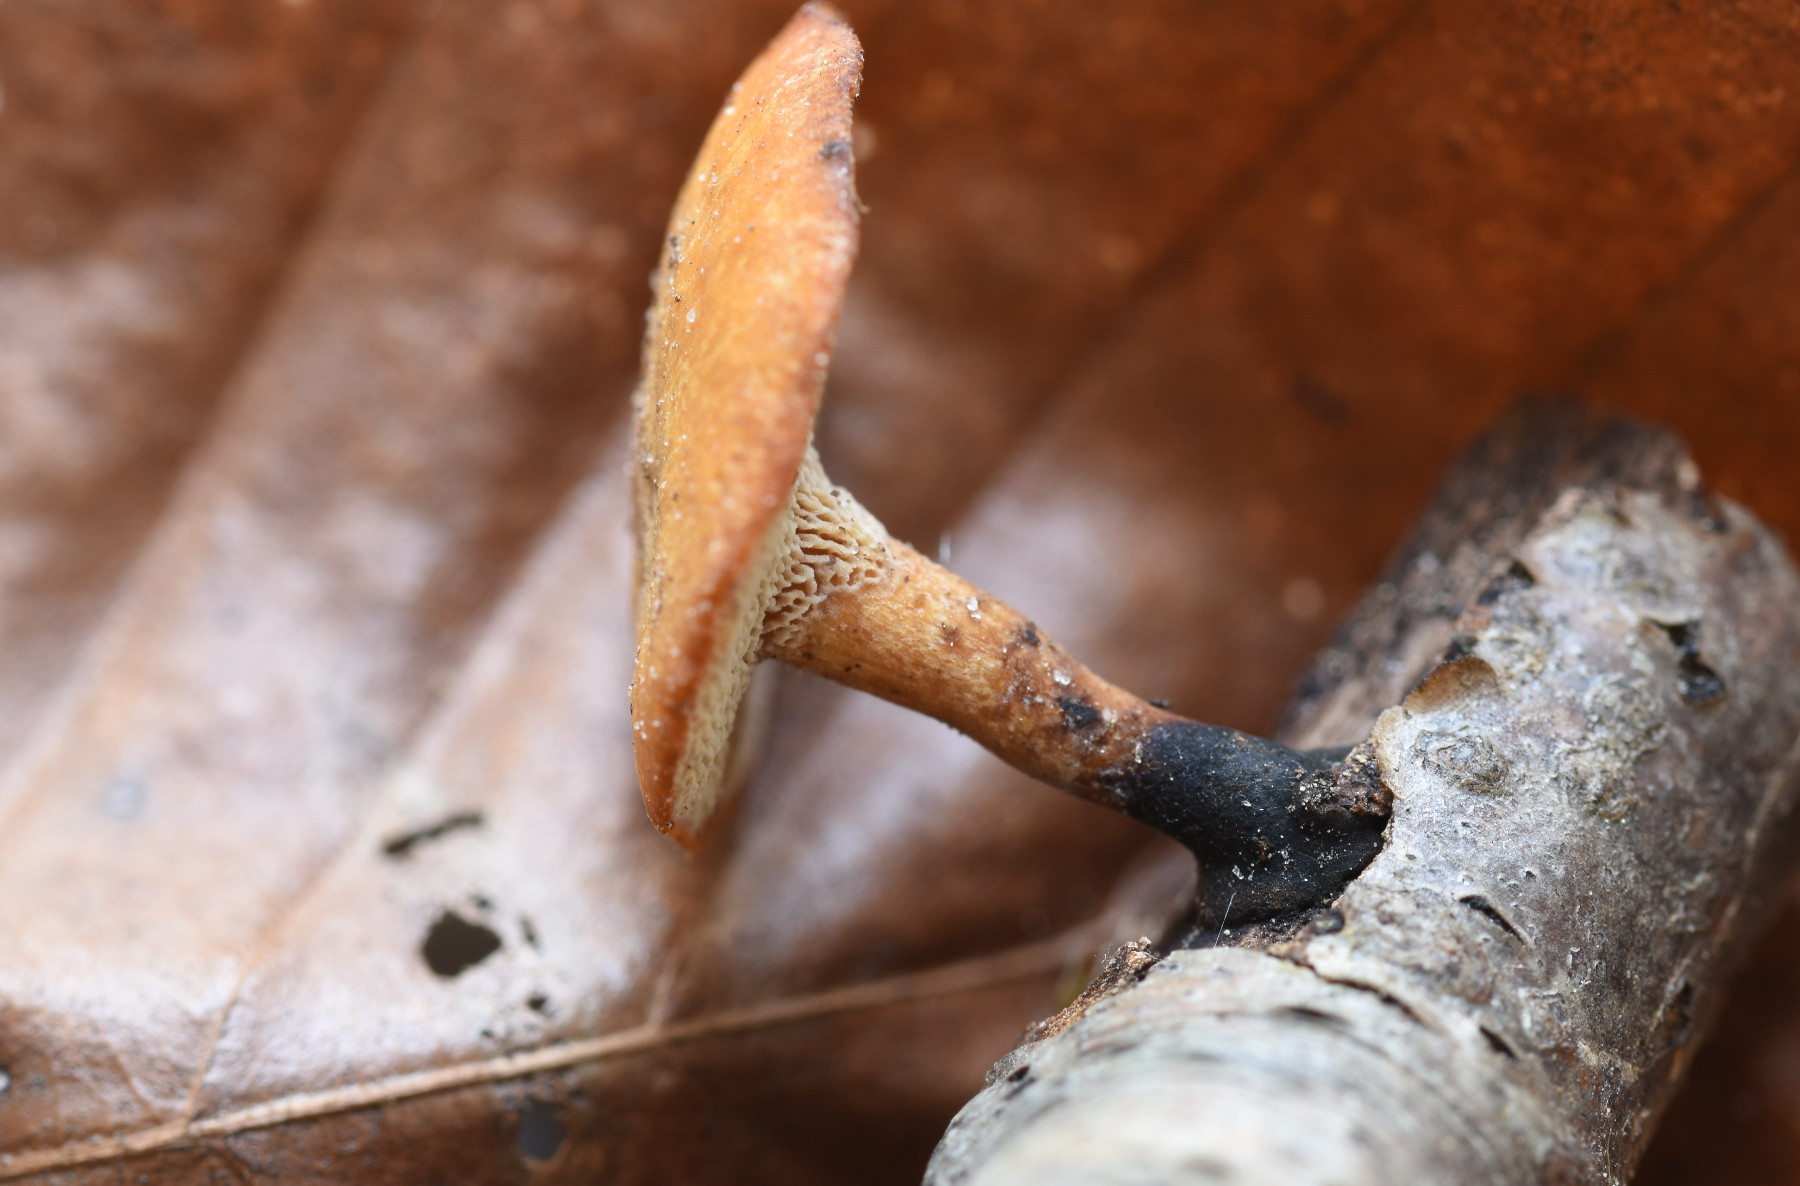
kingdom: Fungi
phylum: Basidiomycota
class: Agaricomycetes
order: Polyporales
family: Polyporaceae
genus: Cerioporus
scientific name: Cerioporus varius
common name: foranderlig stilkporesvamp
